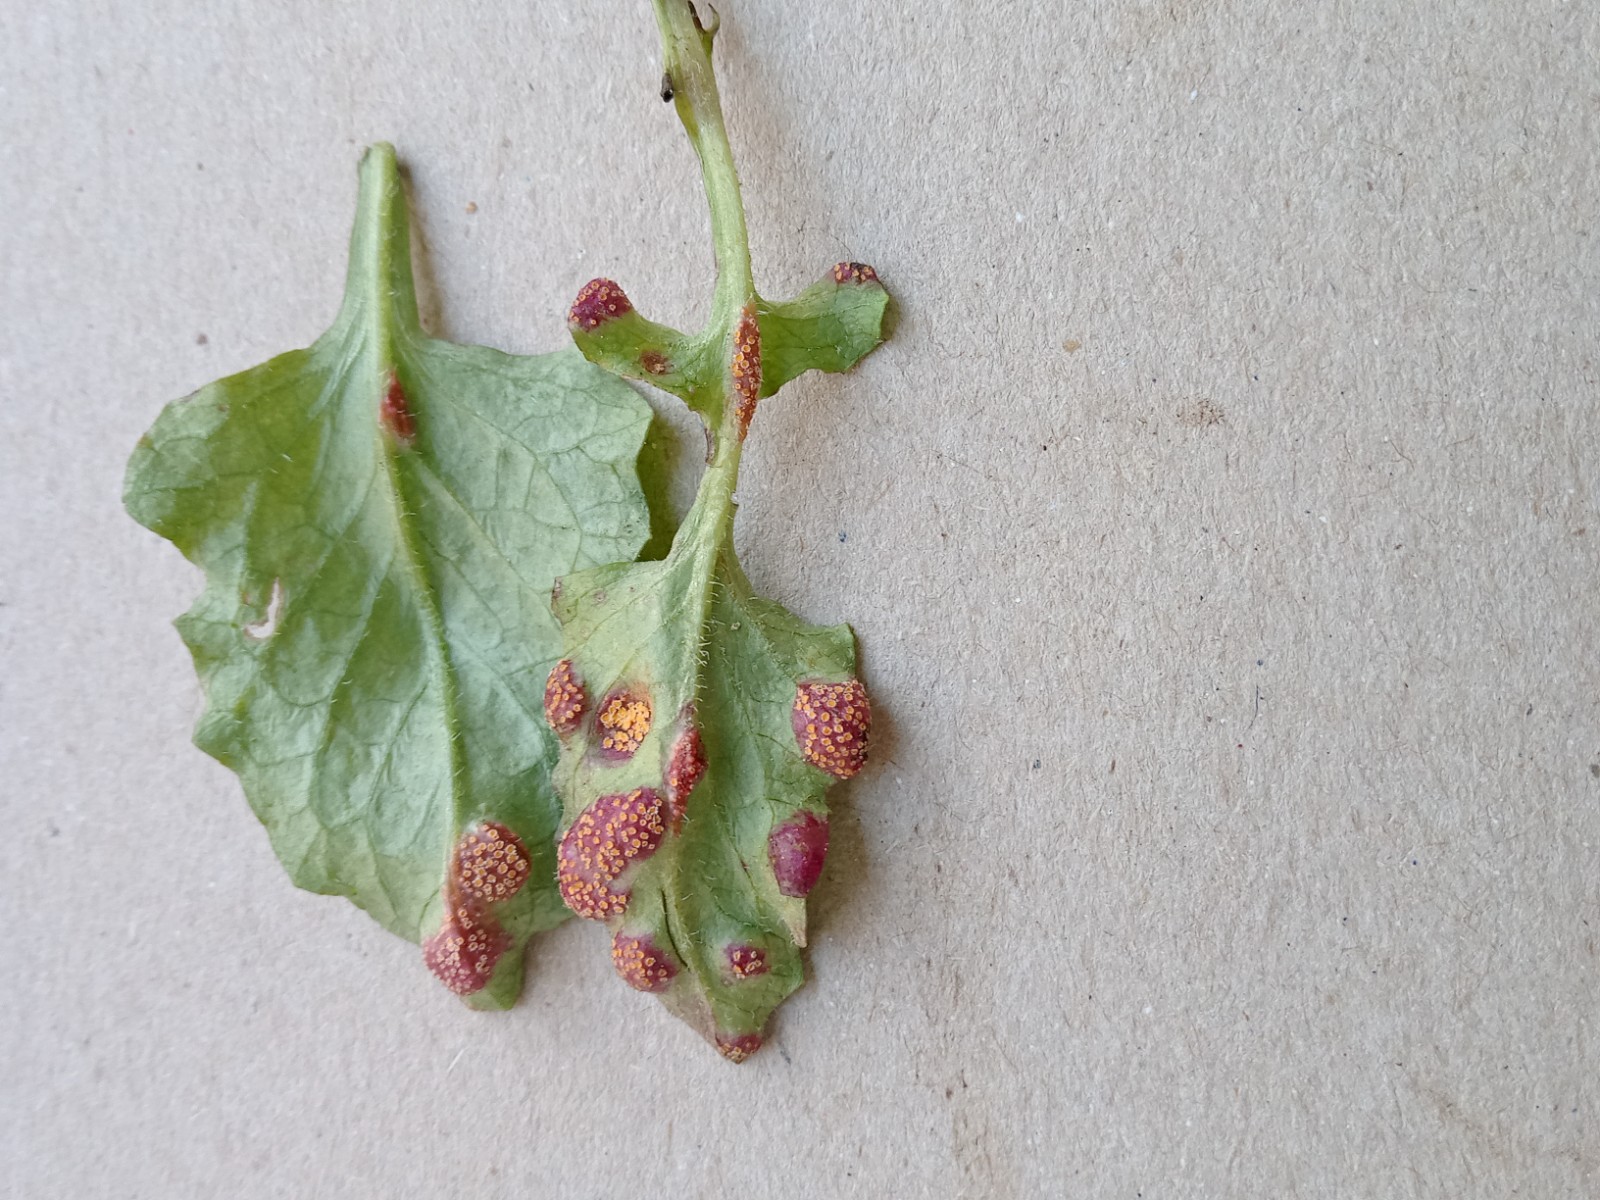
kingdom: Fungi
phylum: Basidiomycota
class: Pucciniomycetes
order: Pucciniales
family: Pucciniaceae
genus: Puccinia
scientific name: Puccinia
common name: tvecellerust
